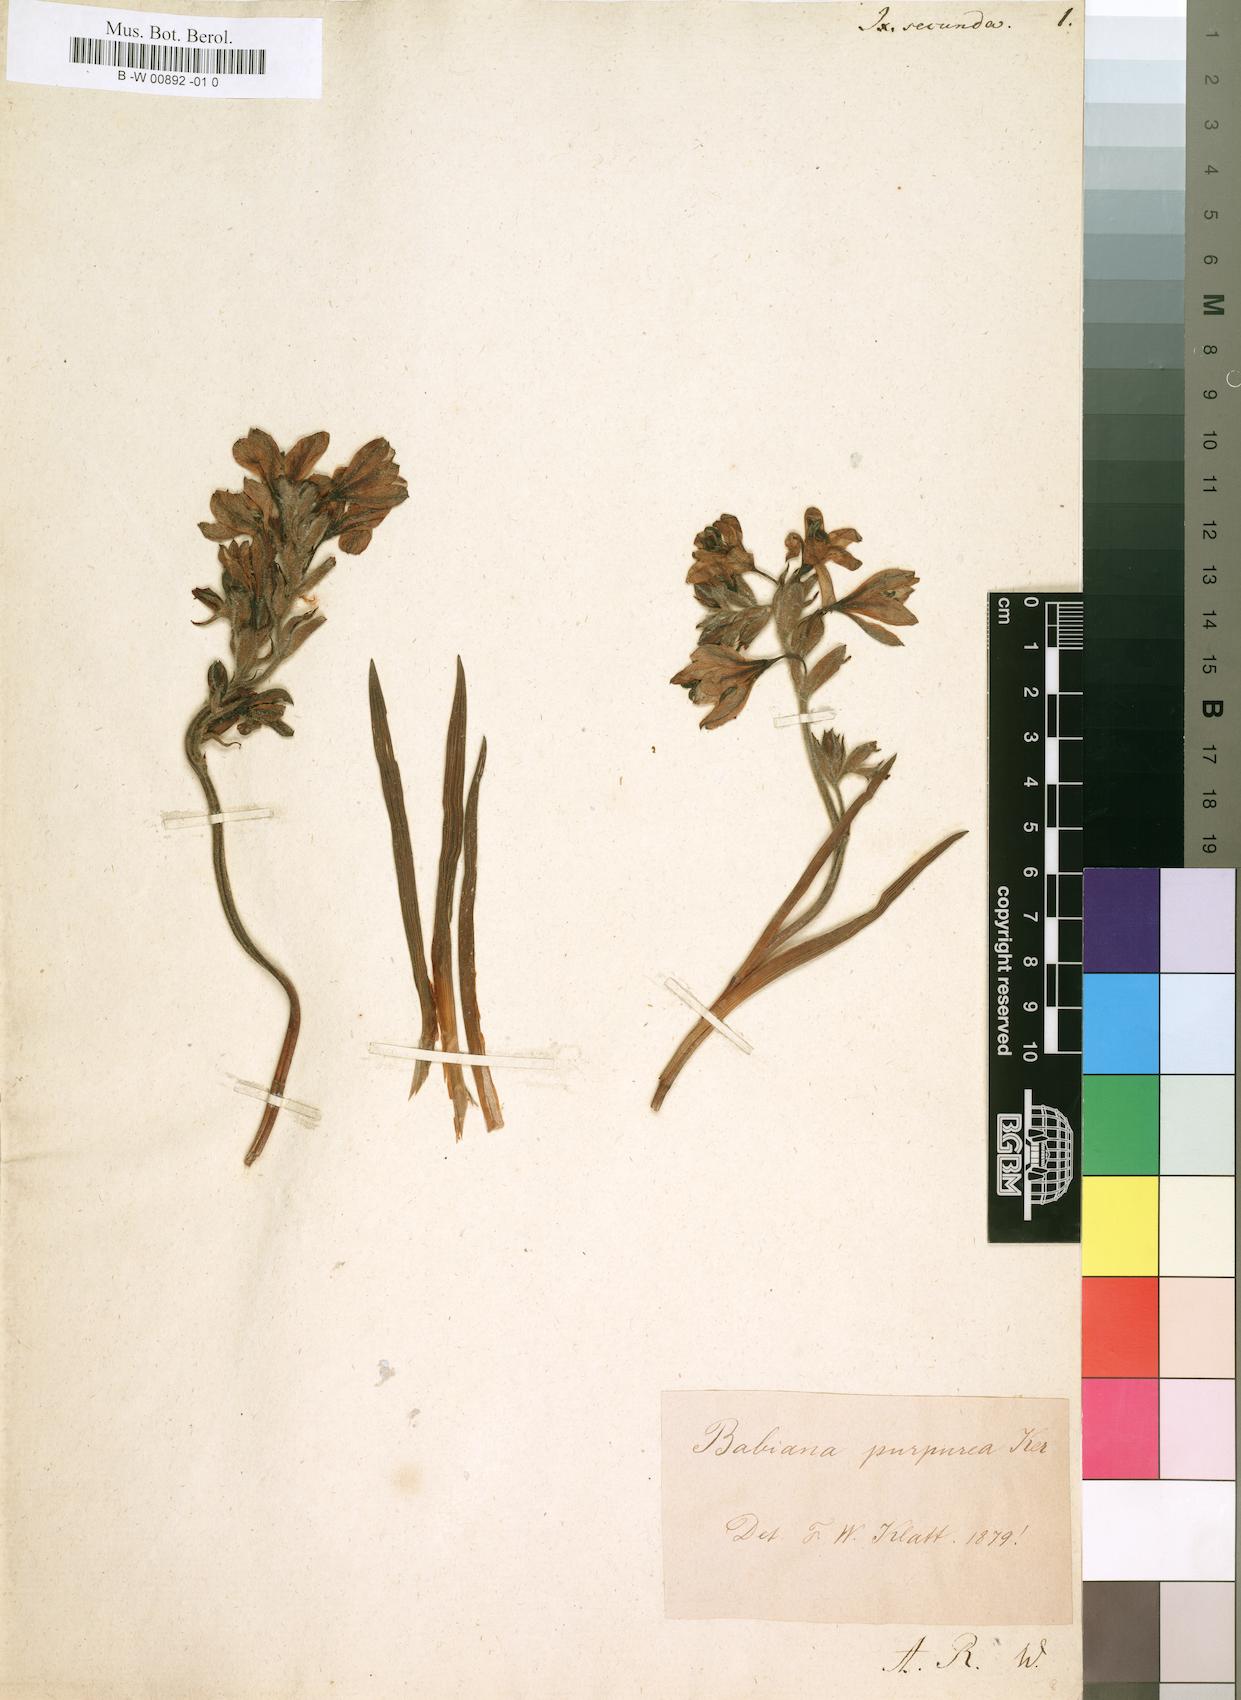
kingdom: Plantae
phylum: Tracheophyta
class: Liliopsida
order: Asparagales
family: Iridaceae
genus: Ixia
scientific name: Ixia secunda
